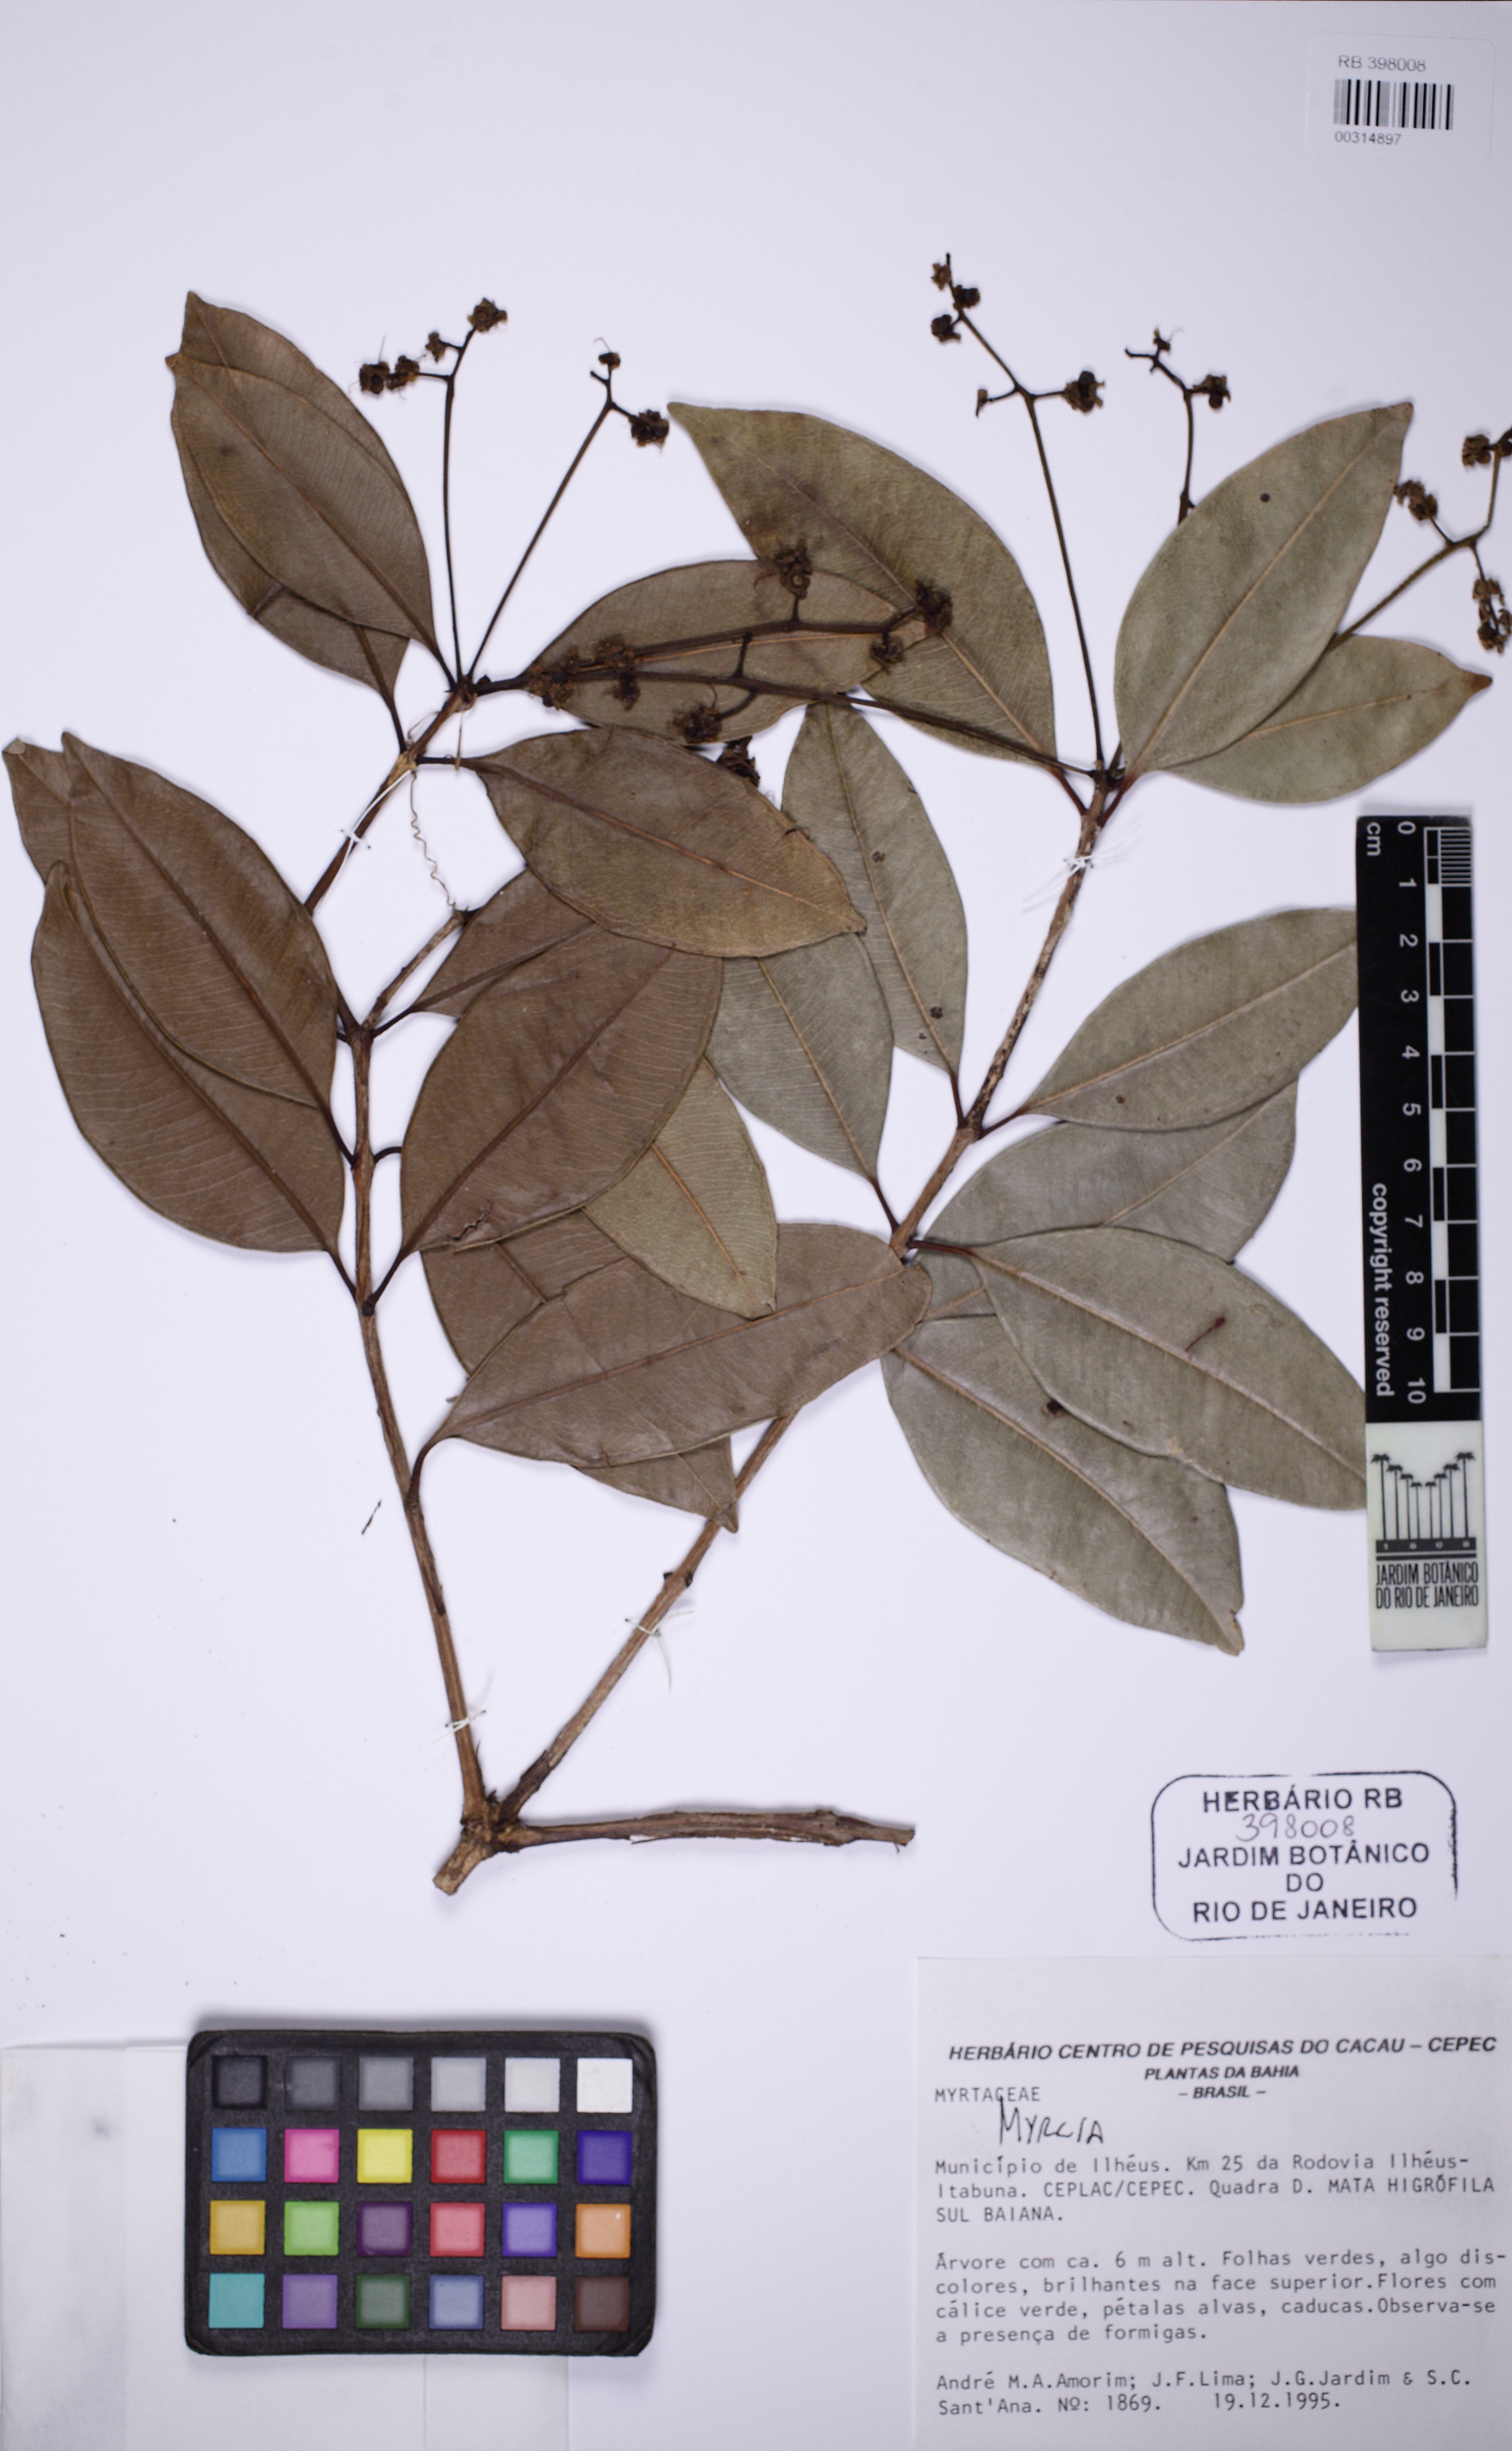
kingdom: Plantae
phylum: Tracheophyta
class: Magnoliopsida
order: Myrtales
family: Myrtaceae
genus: Myrcia
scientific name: Myrcia abrantea
